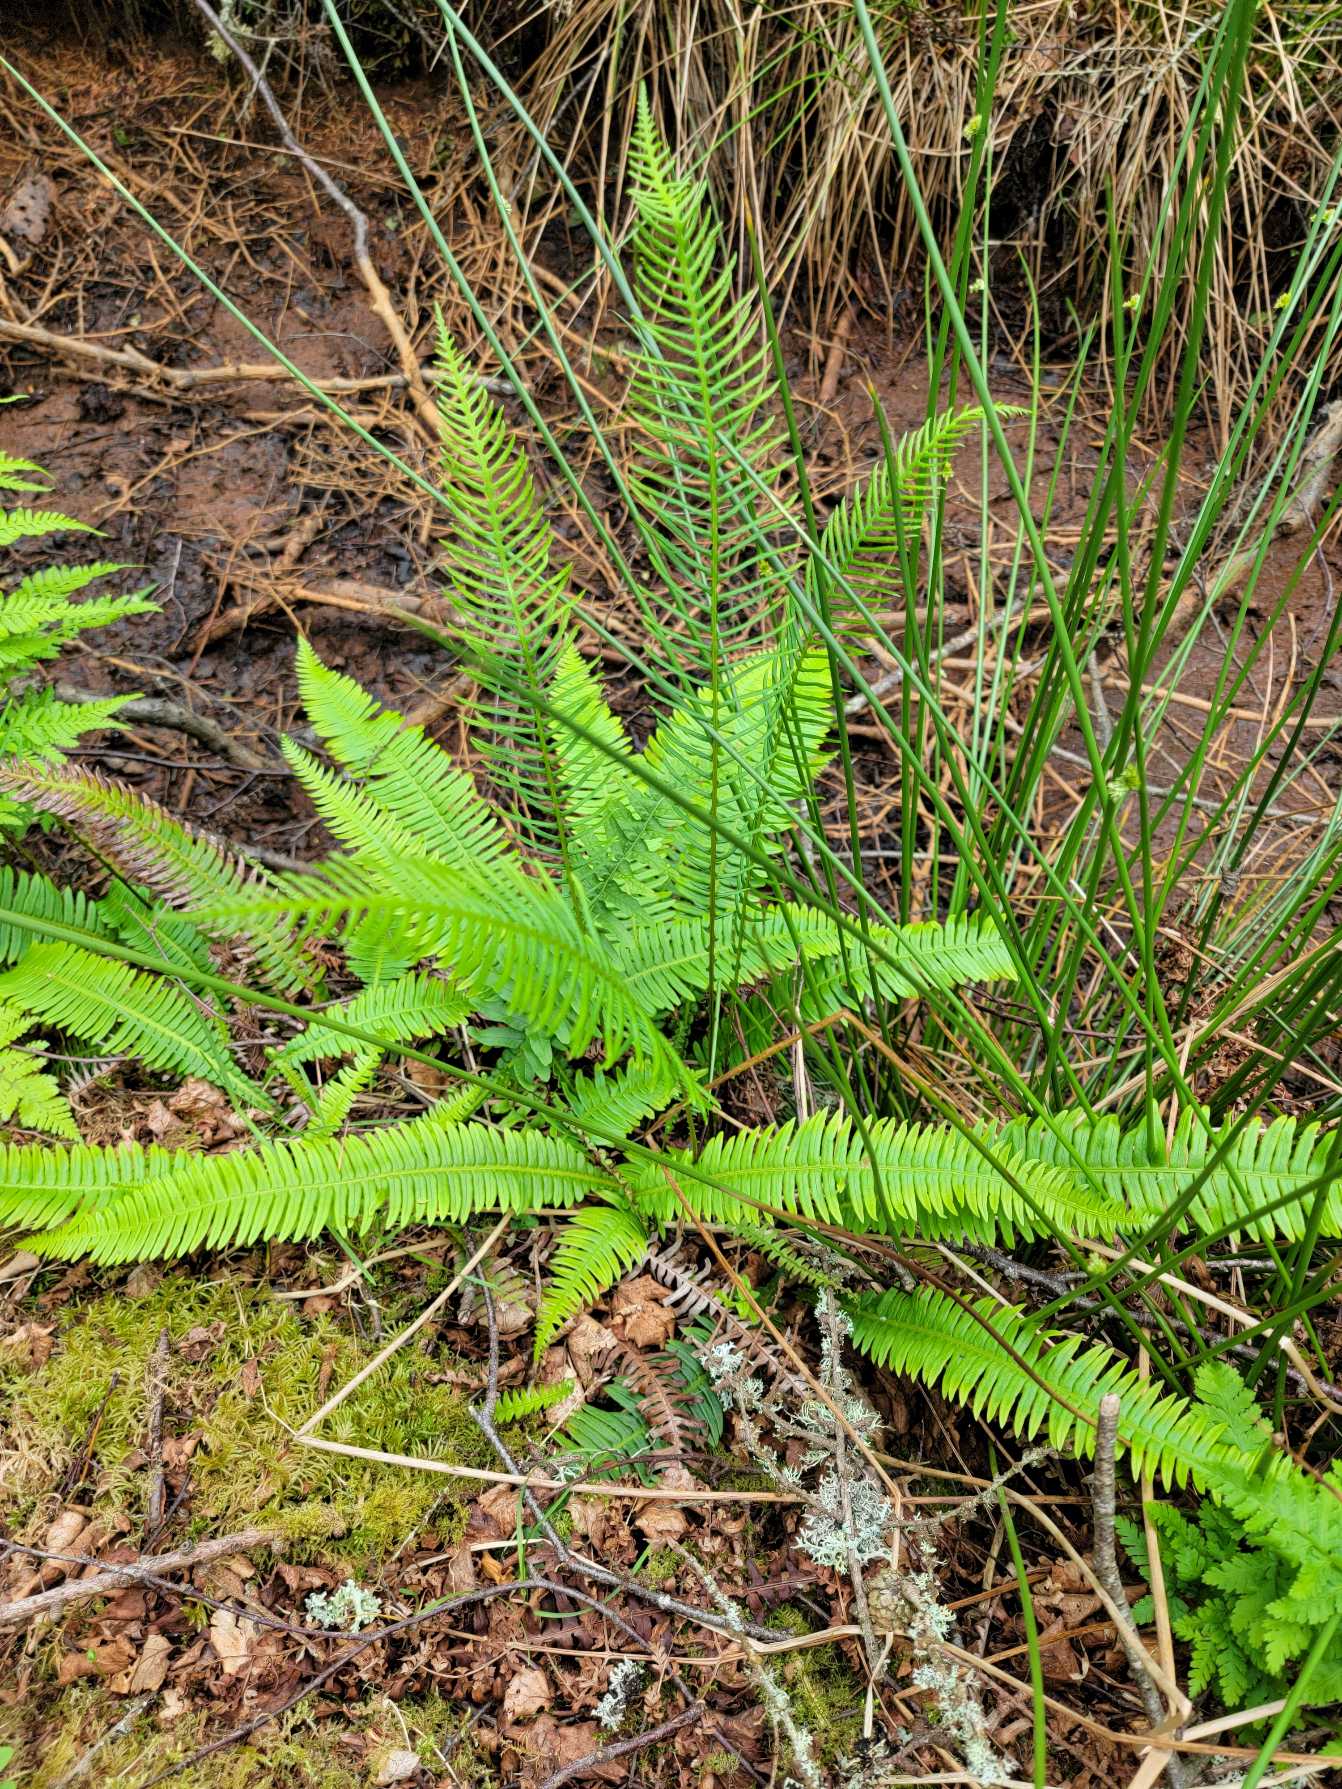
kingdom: Plantae
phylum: Tracheophyta
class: Polypodiopsida
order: Polypodiales
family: Blechnaceae
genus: Struthiopteris
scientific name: Struthiopteris spicant
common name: Kambregne
